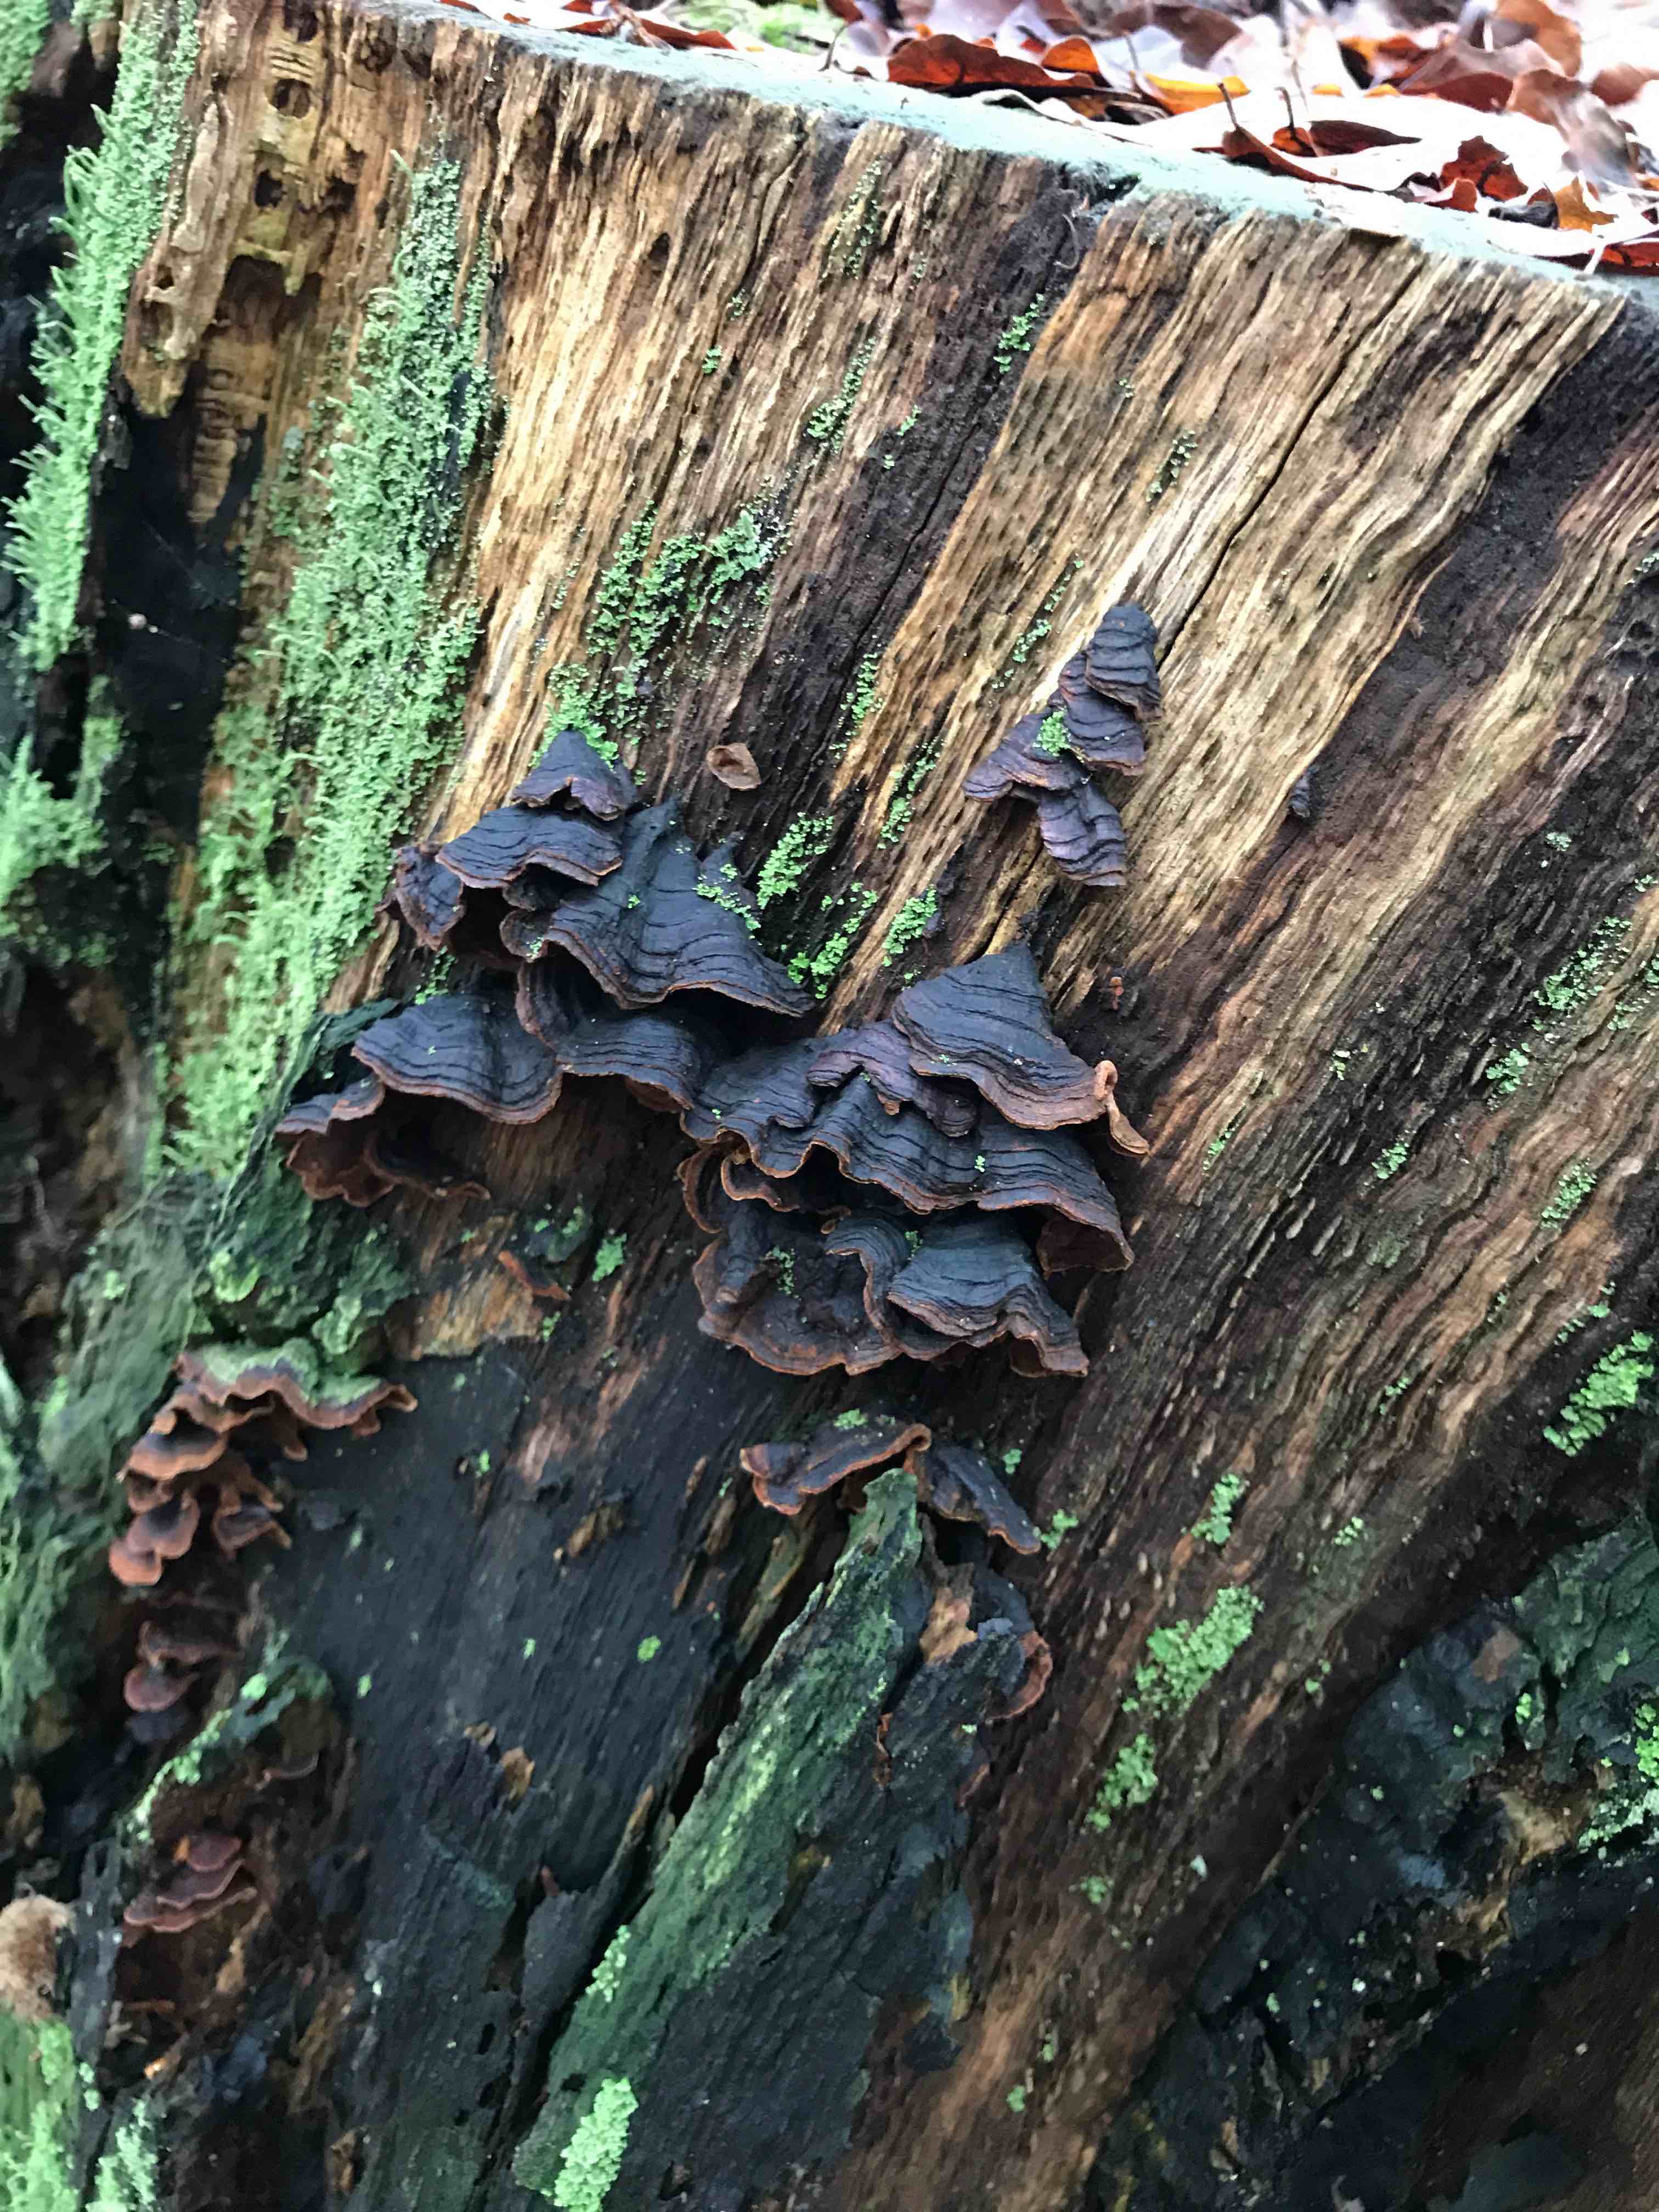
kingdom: Fungi
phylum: Basidiomycota
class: Agaricomycetes
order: Hymenochaetales
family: Hymenochaetaceae
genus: Hymenochaete
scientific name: Hymenochaete rubiginosa
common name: stiv ruslædersvamp
